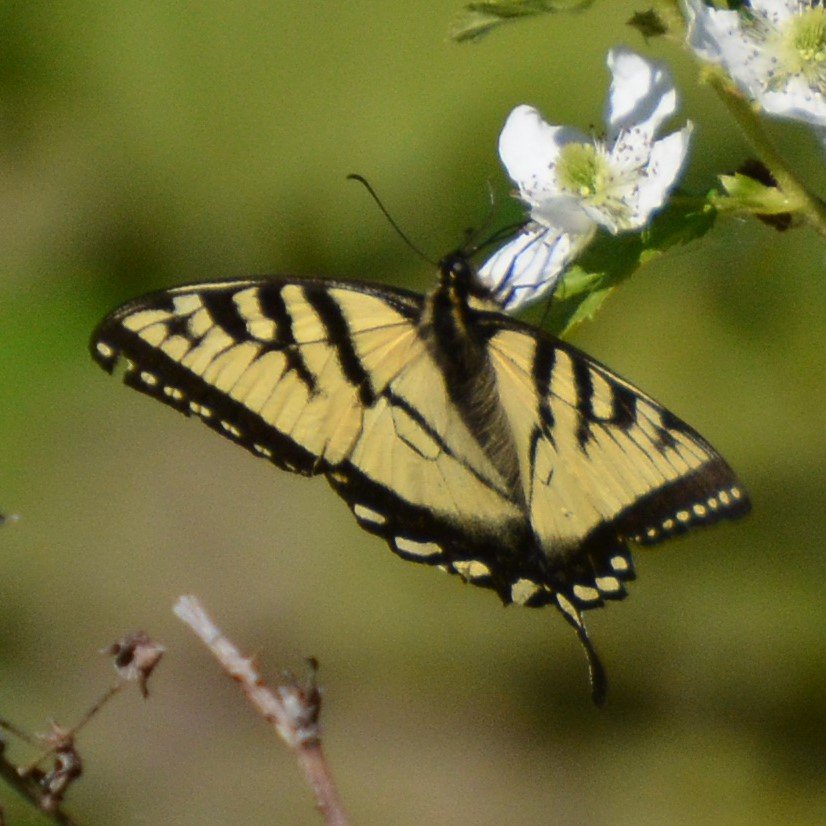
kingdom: Animalia
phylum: Arthropoda
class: Insecta
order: Lepidoptera
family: Papilionidae
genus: Pterourus
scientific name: Pterourus canadensis
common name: Canadian Tiger Swallowtail
